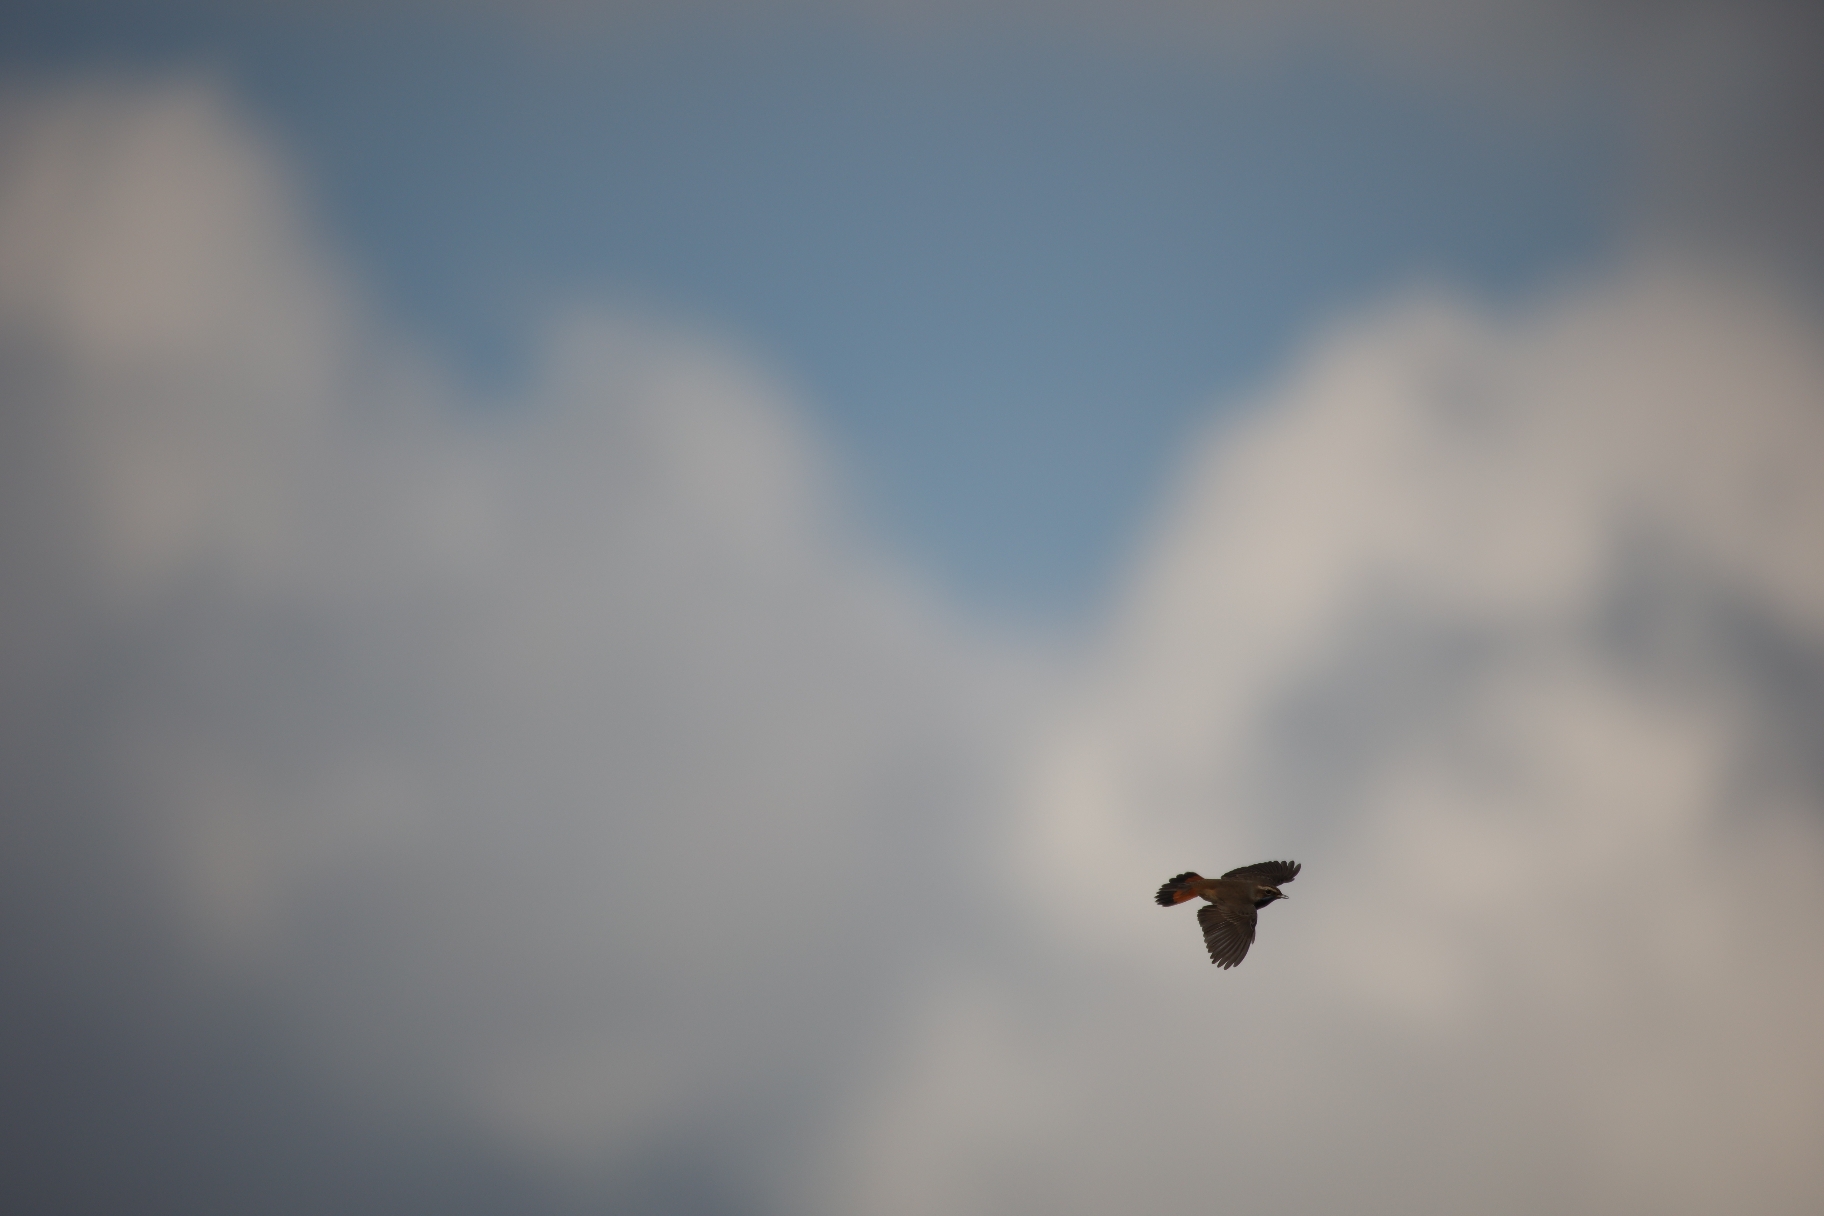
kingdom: Animalia
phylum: Chordata
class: Aves
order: Passeriformes
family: Muscicapidae
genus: Luscinia
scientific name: Luscinia svecica
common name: Blåhals
